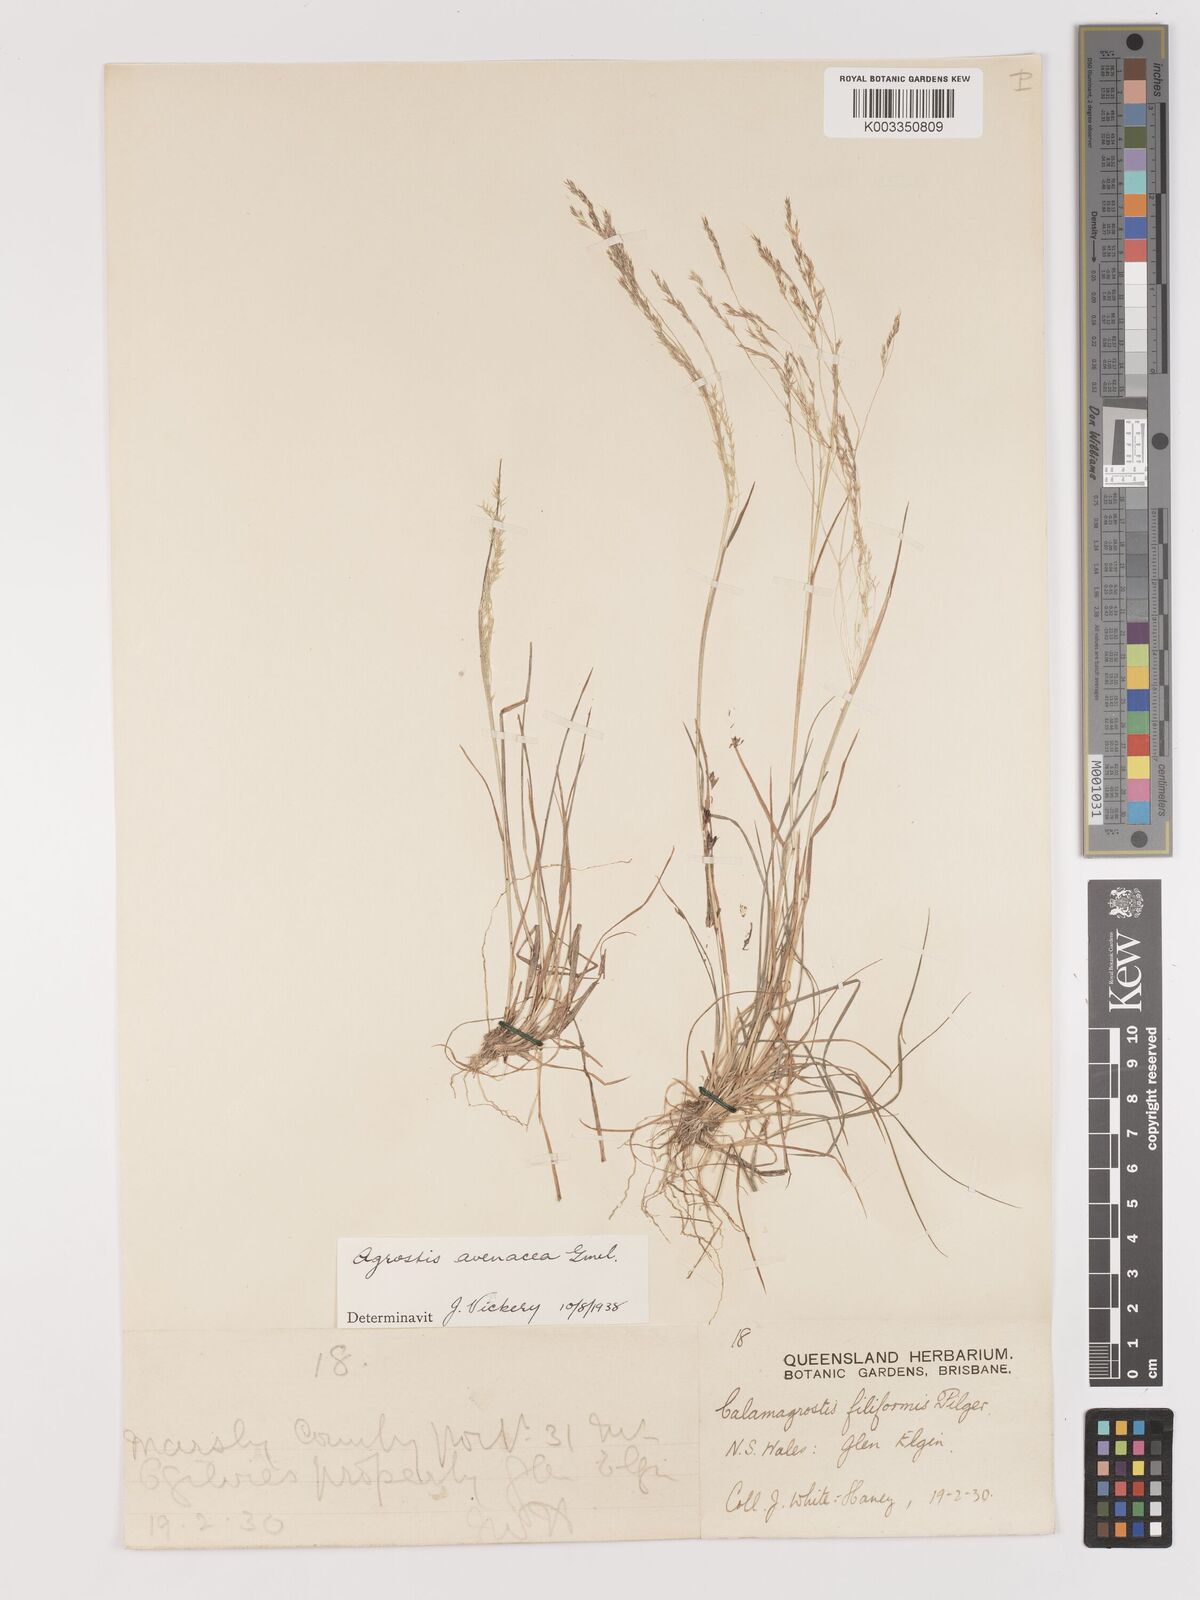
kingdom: Plantae
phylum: Tracheophyta
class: Liliopsida
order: Poales
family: Poaceae
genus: Lachnagrostis
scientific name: Lachnagrostis filiformis
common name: Bentgrass
